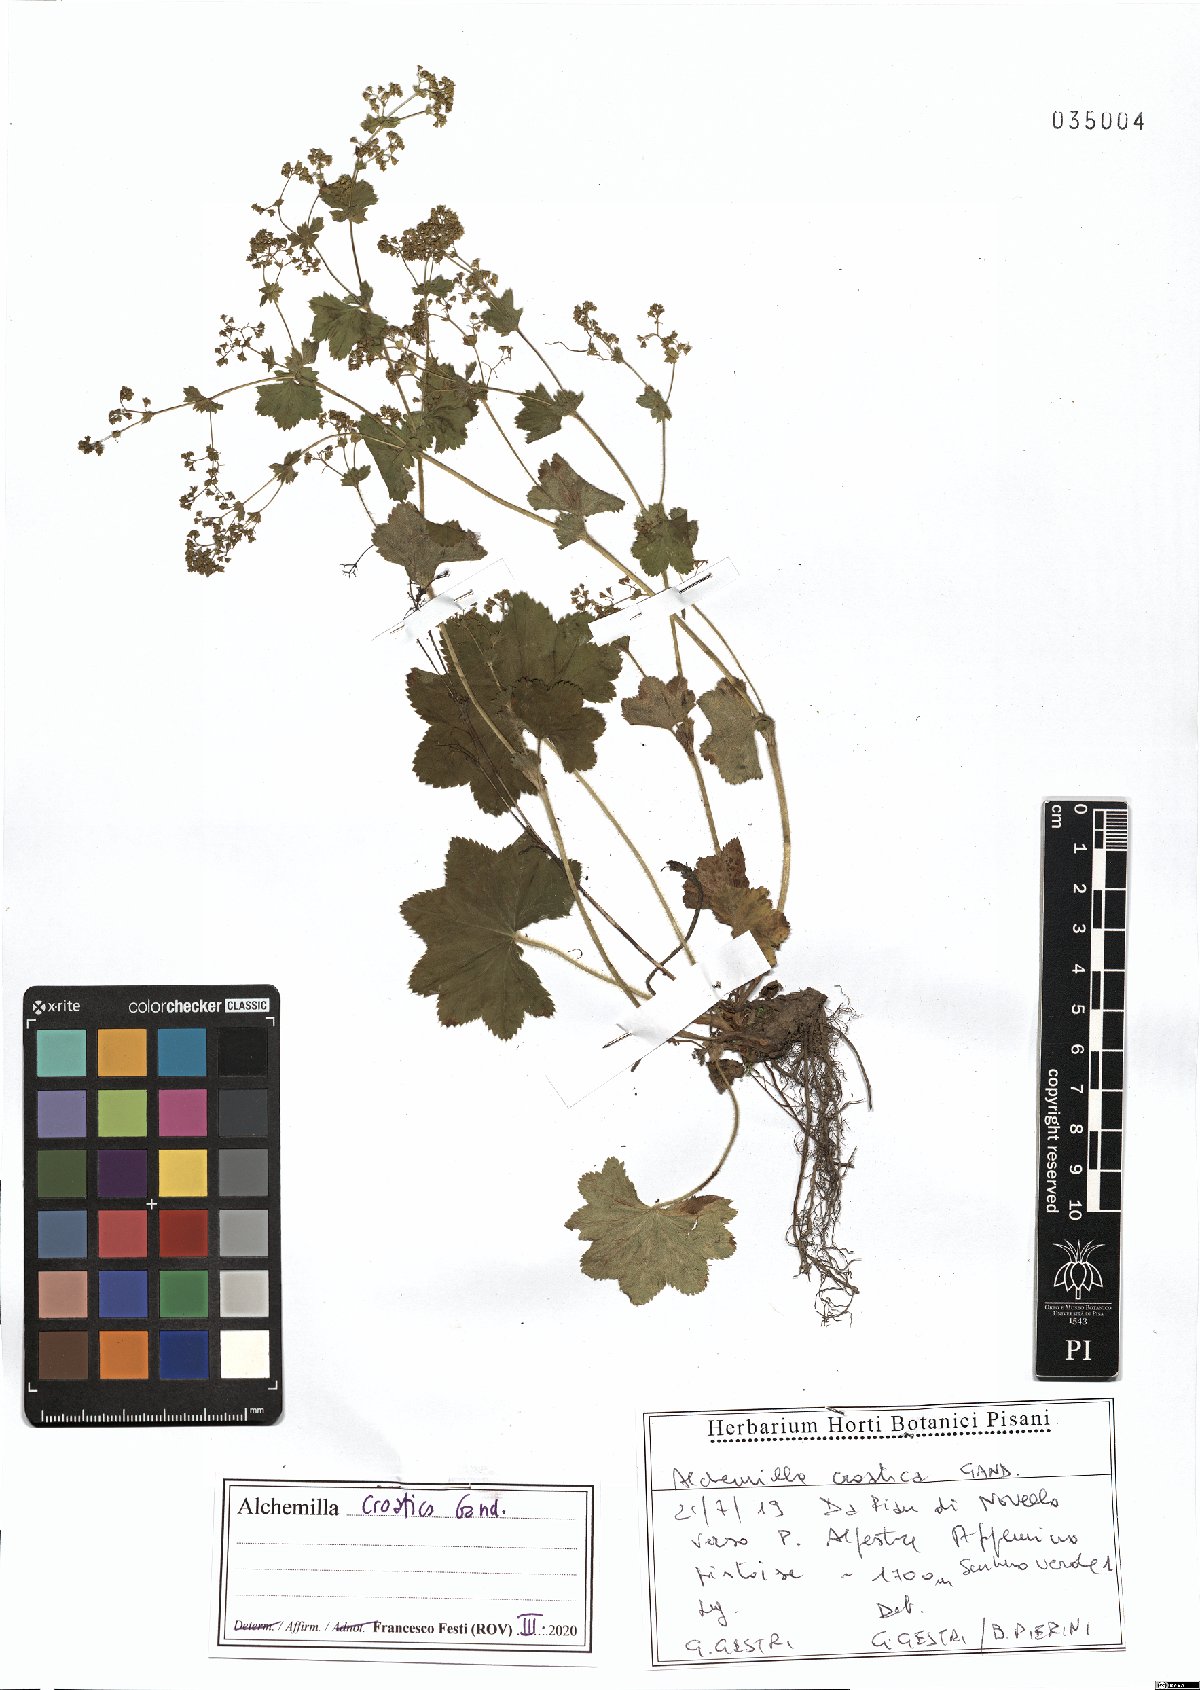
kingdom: Plantae
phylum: Tracheophyta
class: Magnoliopsida
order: Rosales
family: Rosaceae
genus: Alchemilla
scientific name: Alchemilla croatica
